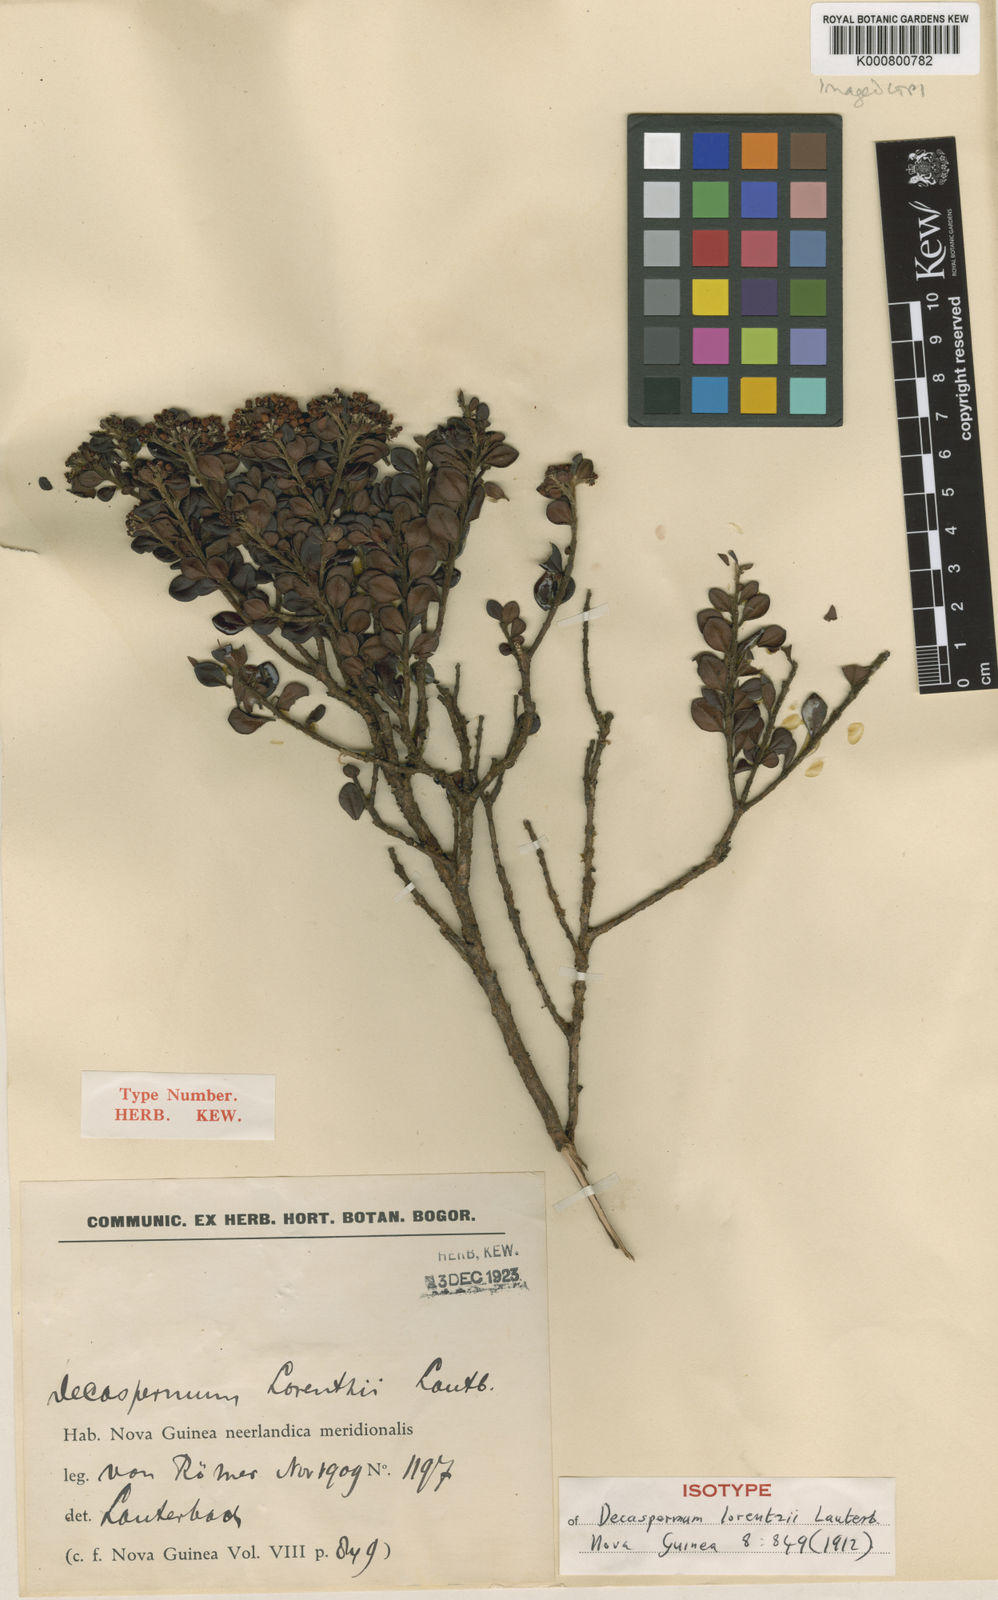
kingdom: Plantae
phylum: Tracheophyta
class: Magnoliopsida
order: Myrtales
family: Myrtaceae
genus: Decaspermum
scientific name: Decaspermum lorentzii
